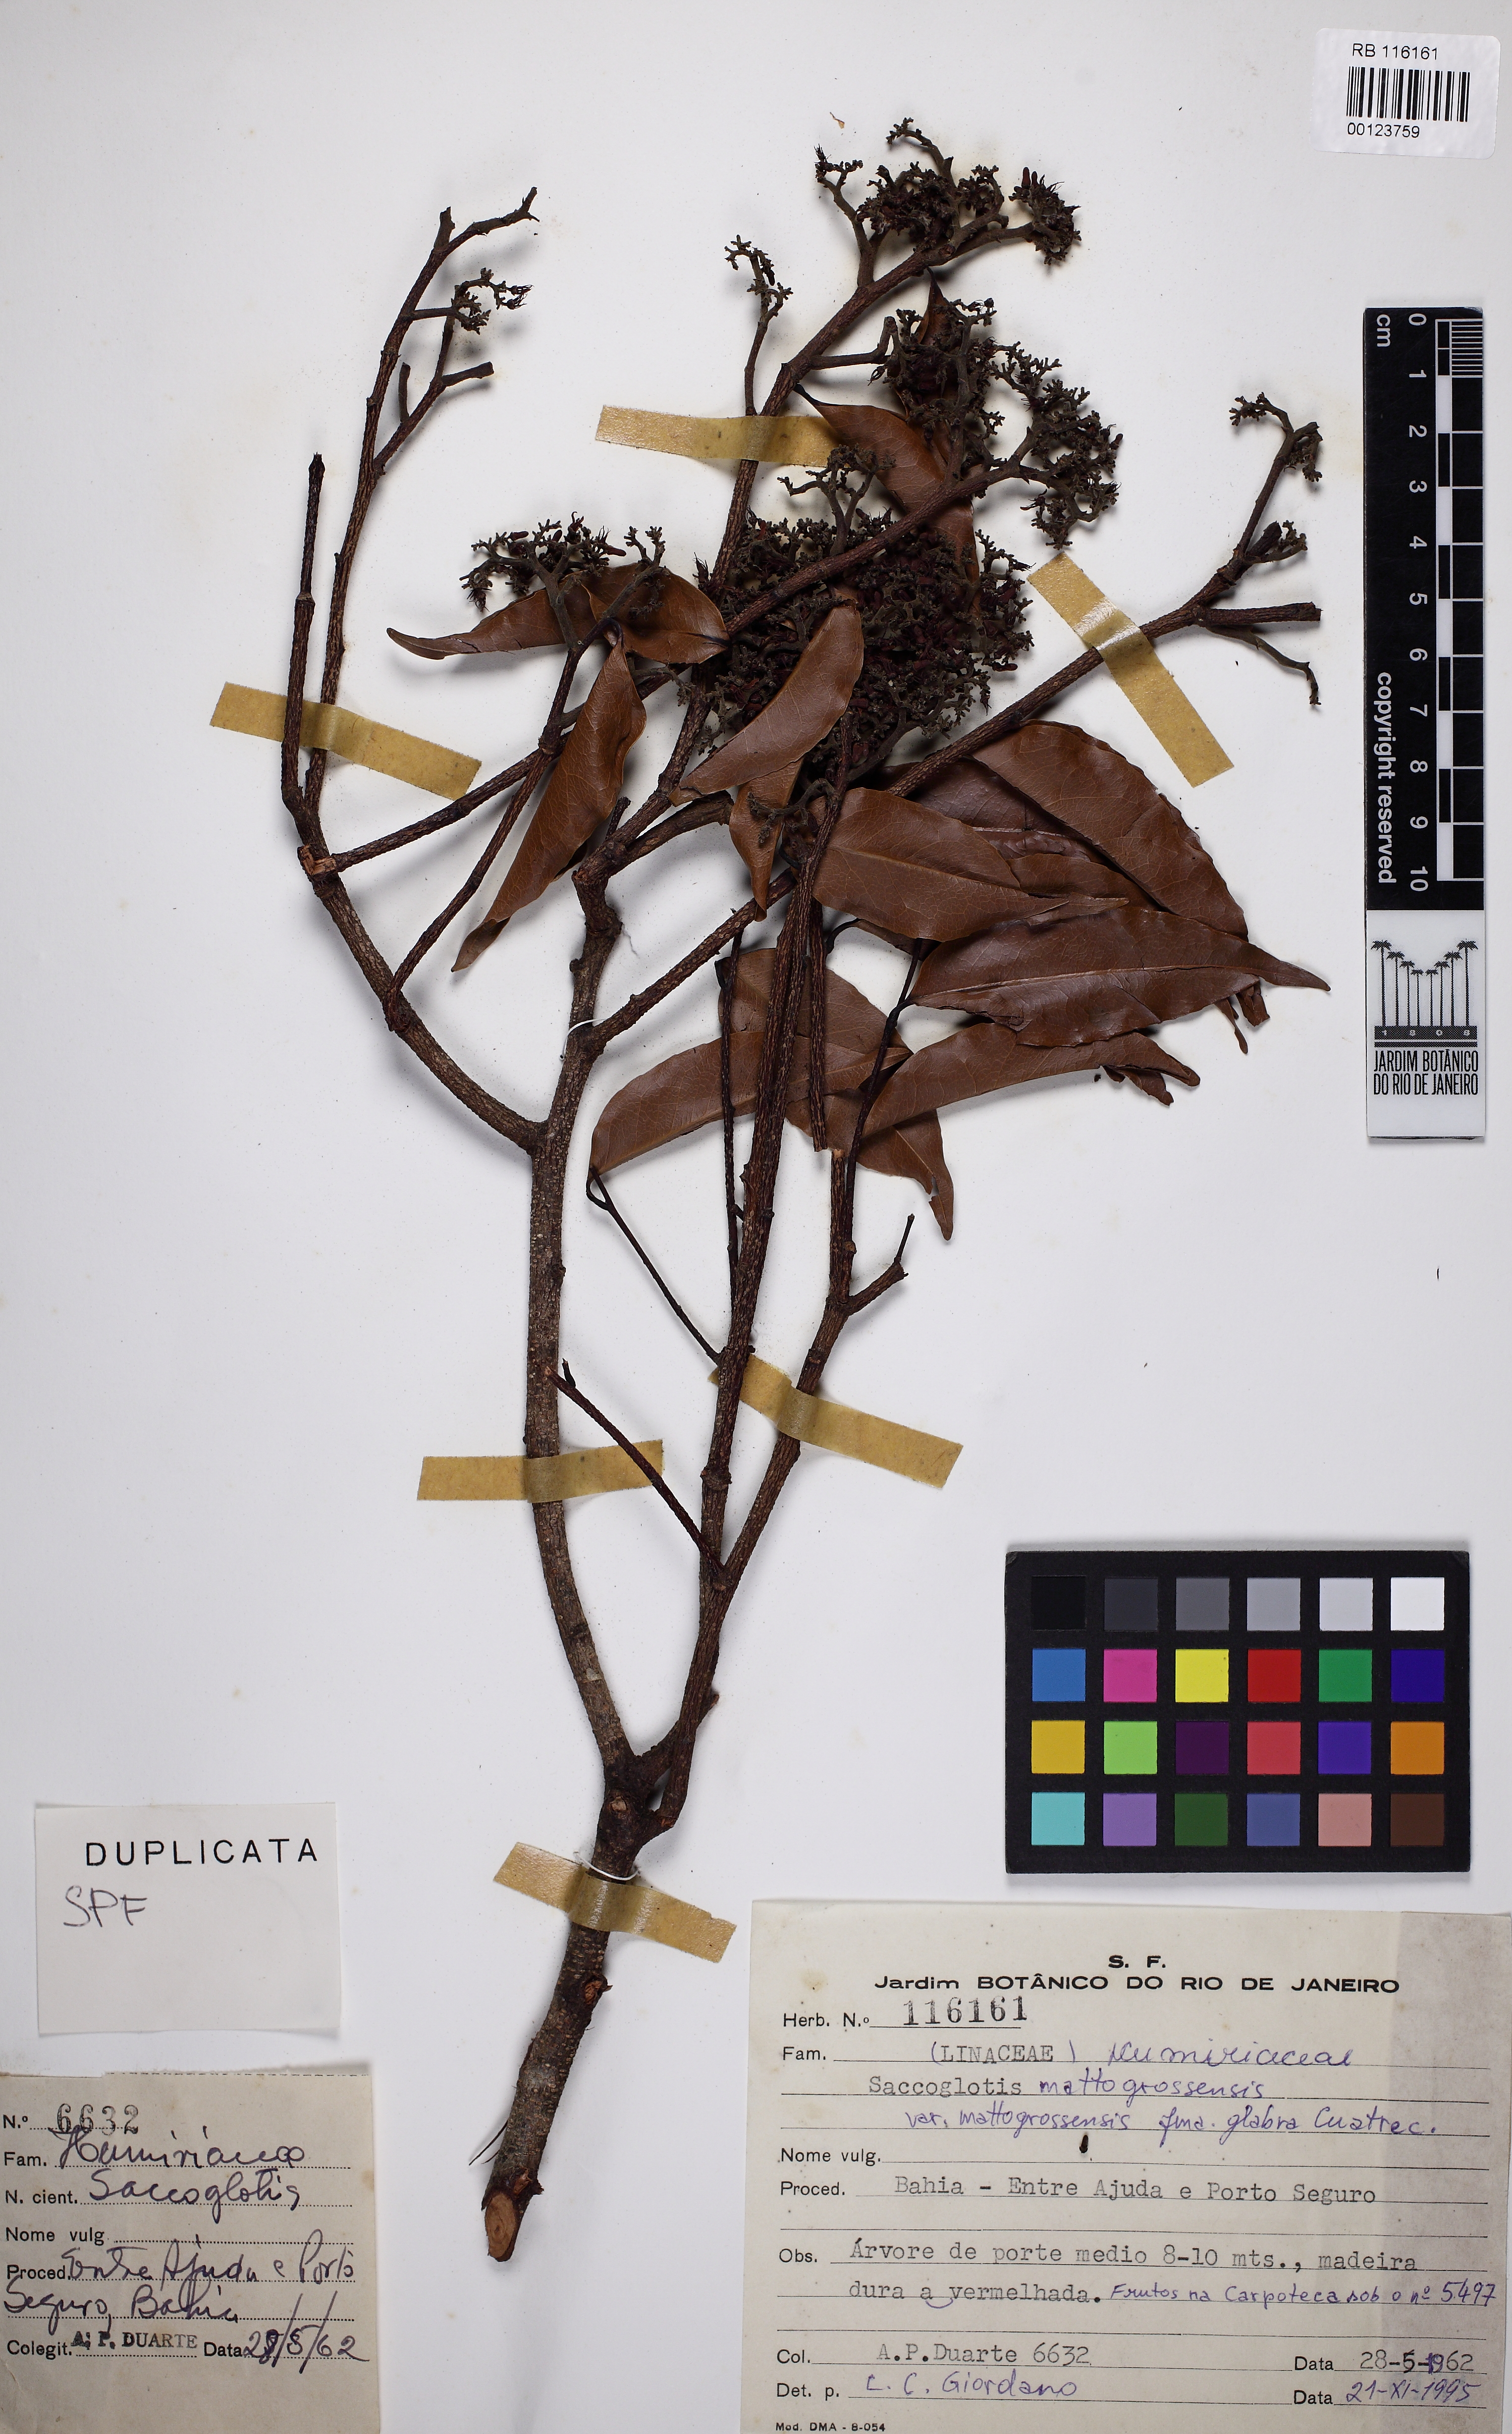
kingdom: Plantae
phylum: Tracheophyta
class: Magnoliopsida
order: Malpighiales
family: Humiriaceae
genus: Sacoglottis
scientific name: Sacoglottis mattogrossensis
